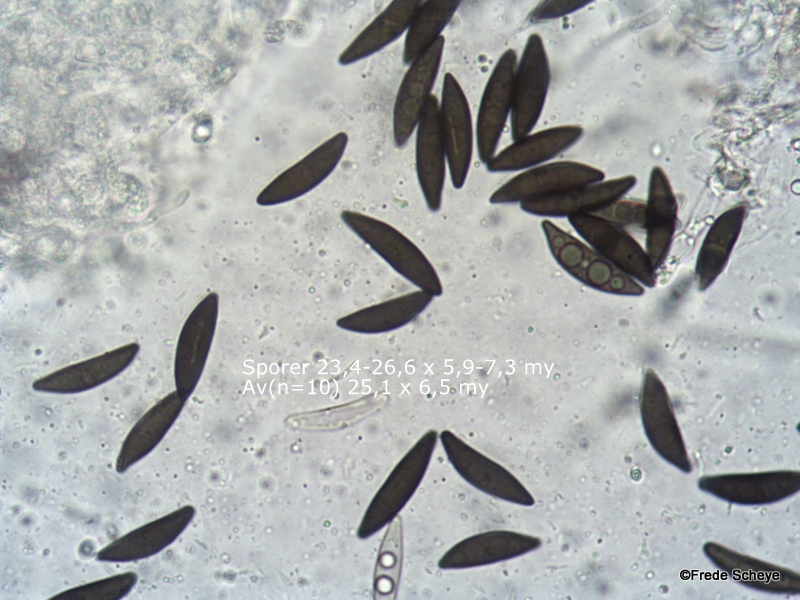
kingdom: Fungi
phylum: Ascomycota
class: Sordariomycetes
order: Xylariales
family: Xylariaceae
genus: Xylaria
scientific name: Xylaria polymorpha
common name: kølle-stødsvamp
